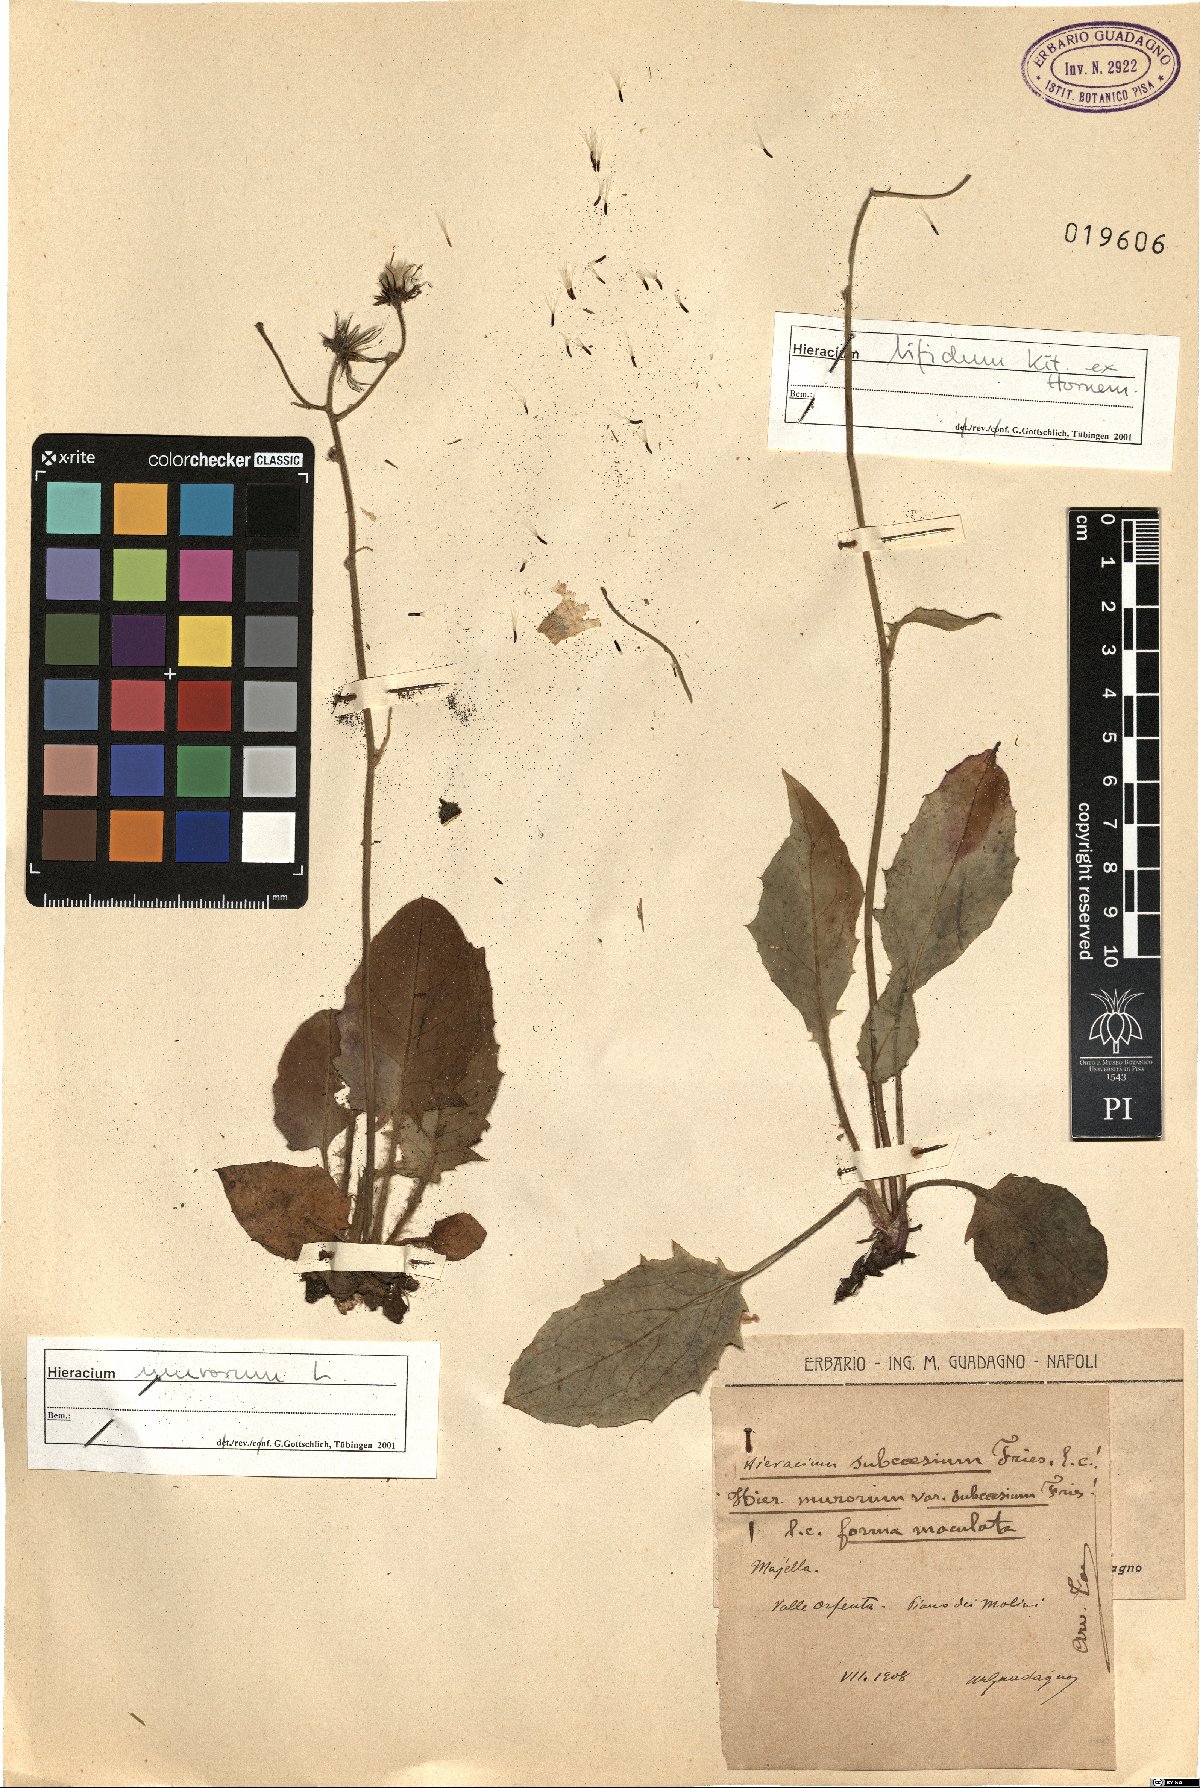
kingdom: Plantae
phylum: Tracheophyta
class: Magnoliopsida
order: Asterales
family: Asteraceae
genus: Hieracium
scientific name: Hieracium bifidum
